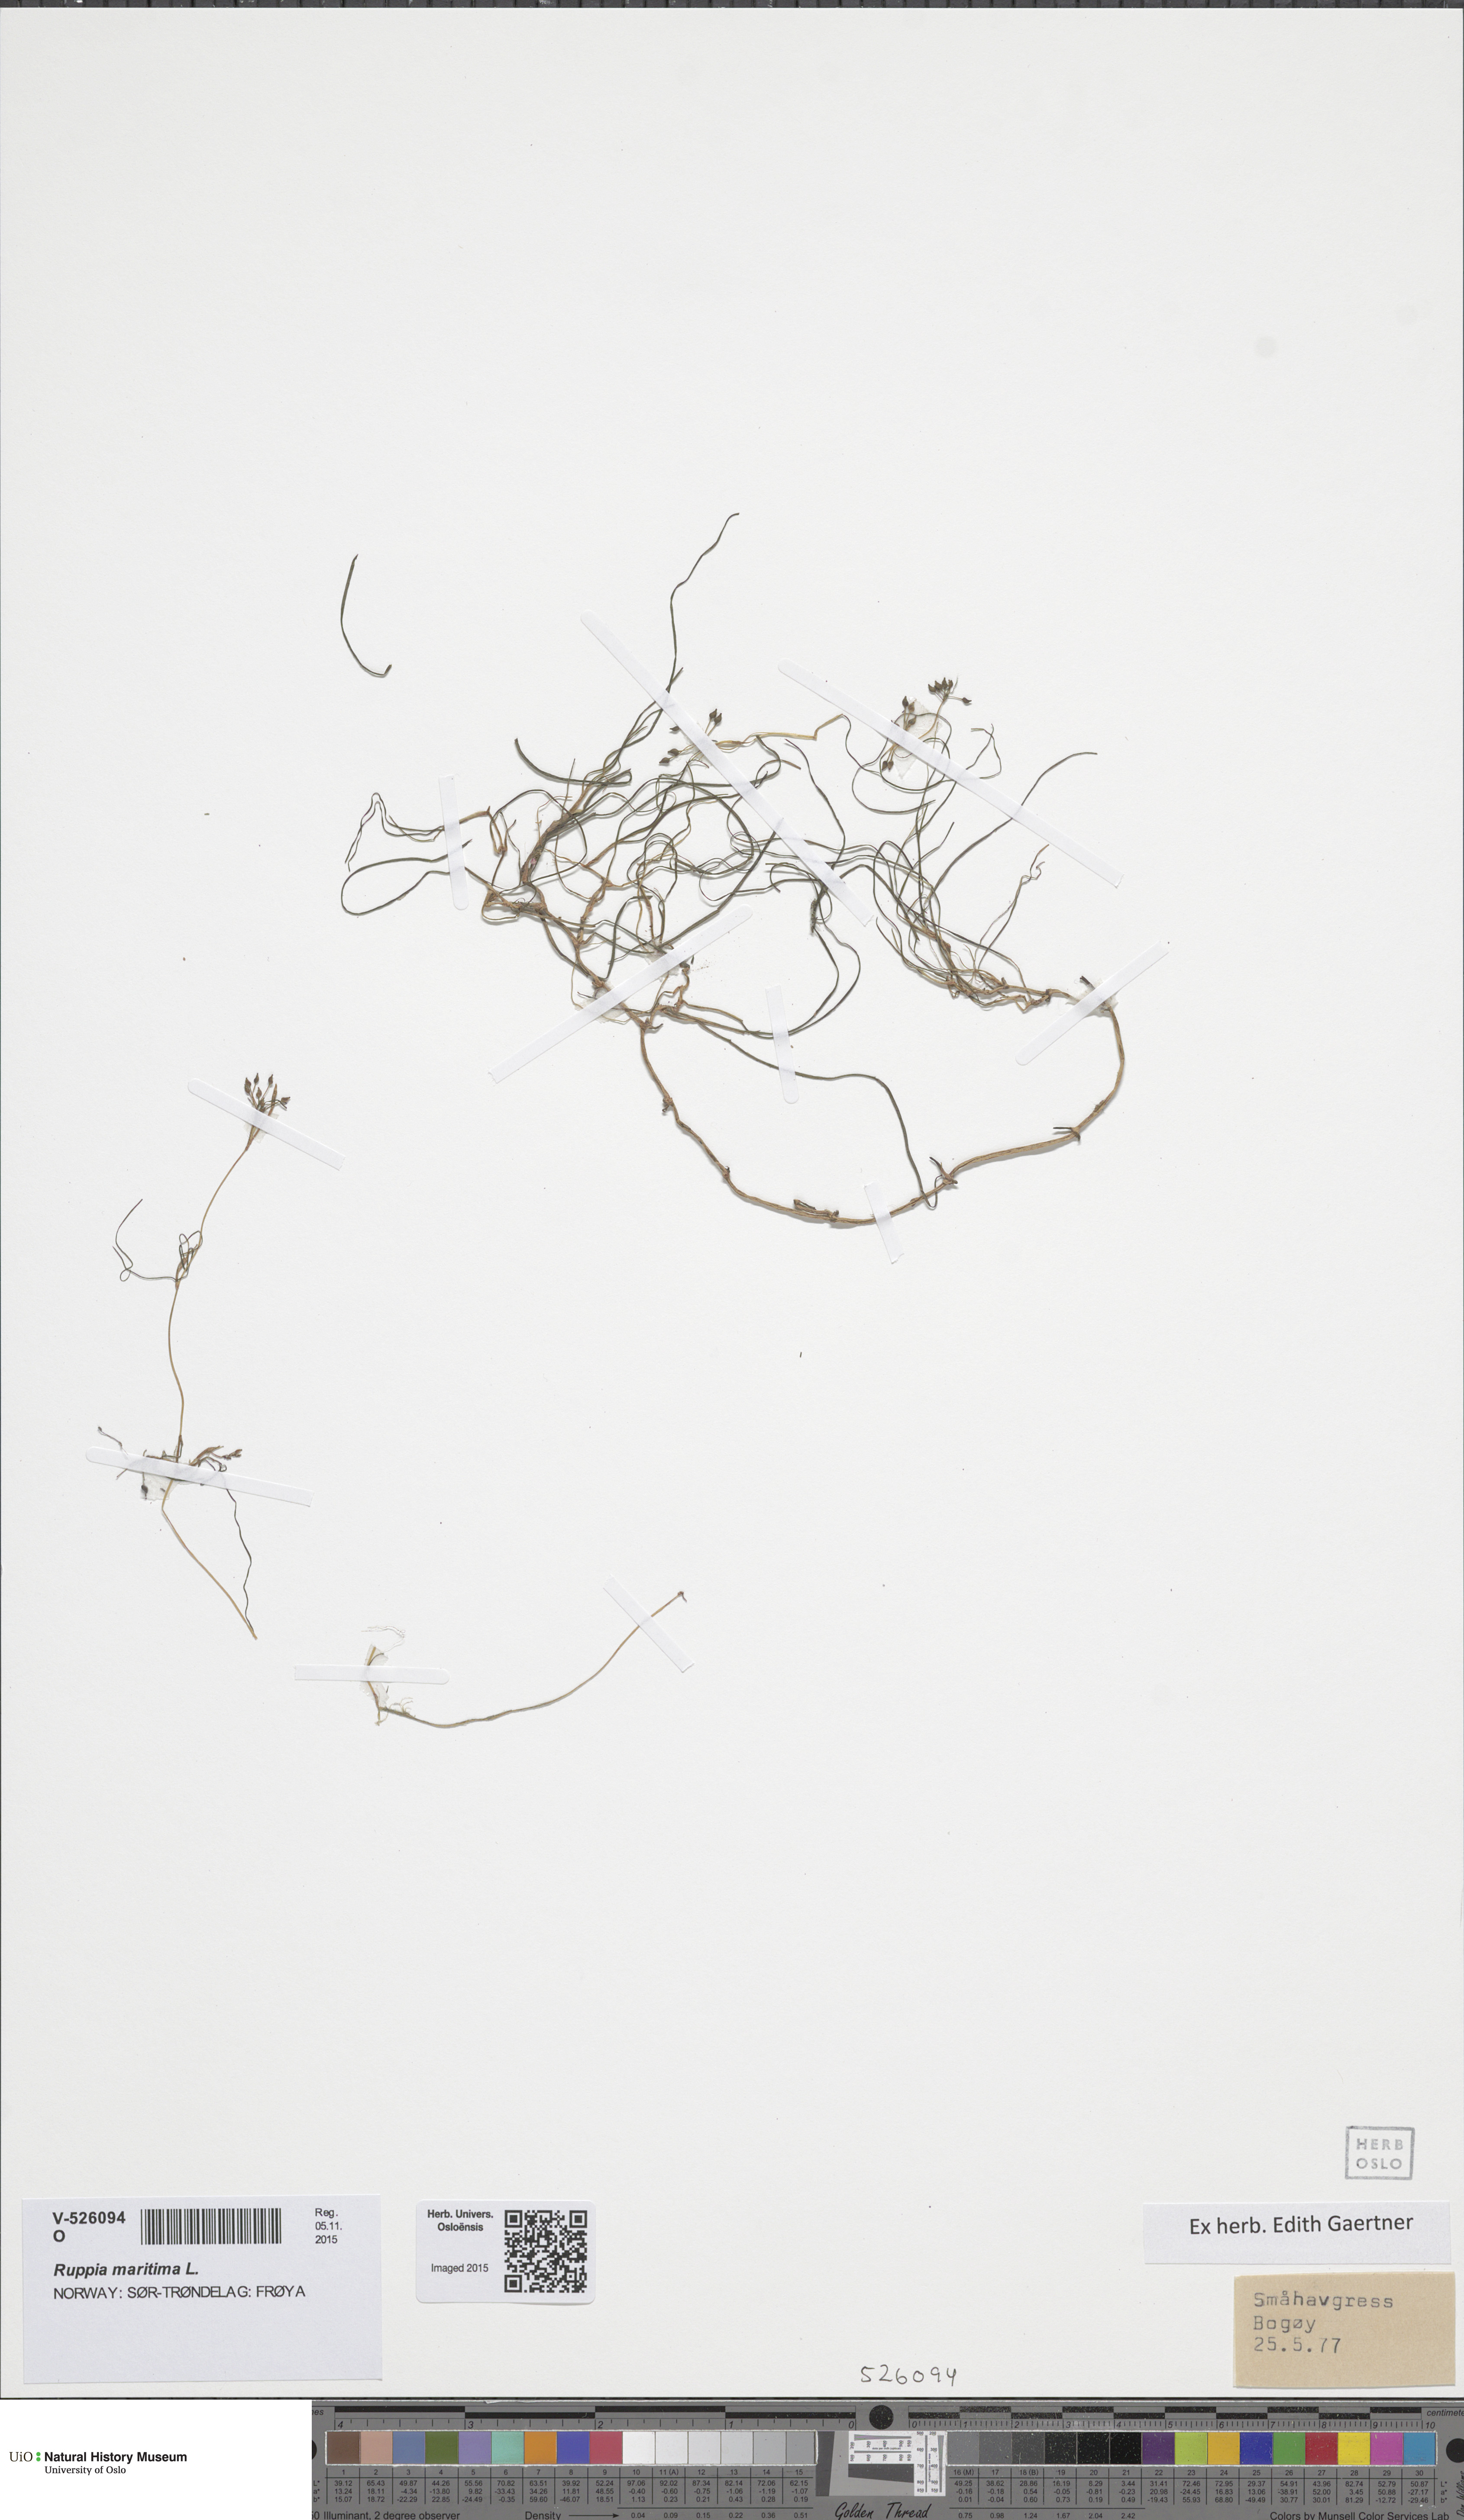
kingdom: Plantae
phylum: Tracheophyta
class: Liliopsida
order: Alismatales
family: Ruppiaceae
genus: Ruppia
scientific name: Ruppia maritima
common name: Beaked tasselweed
